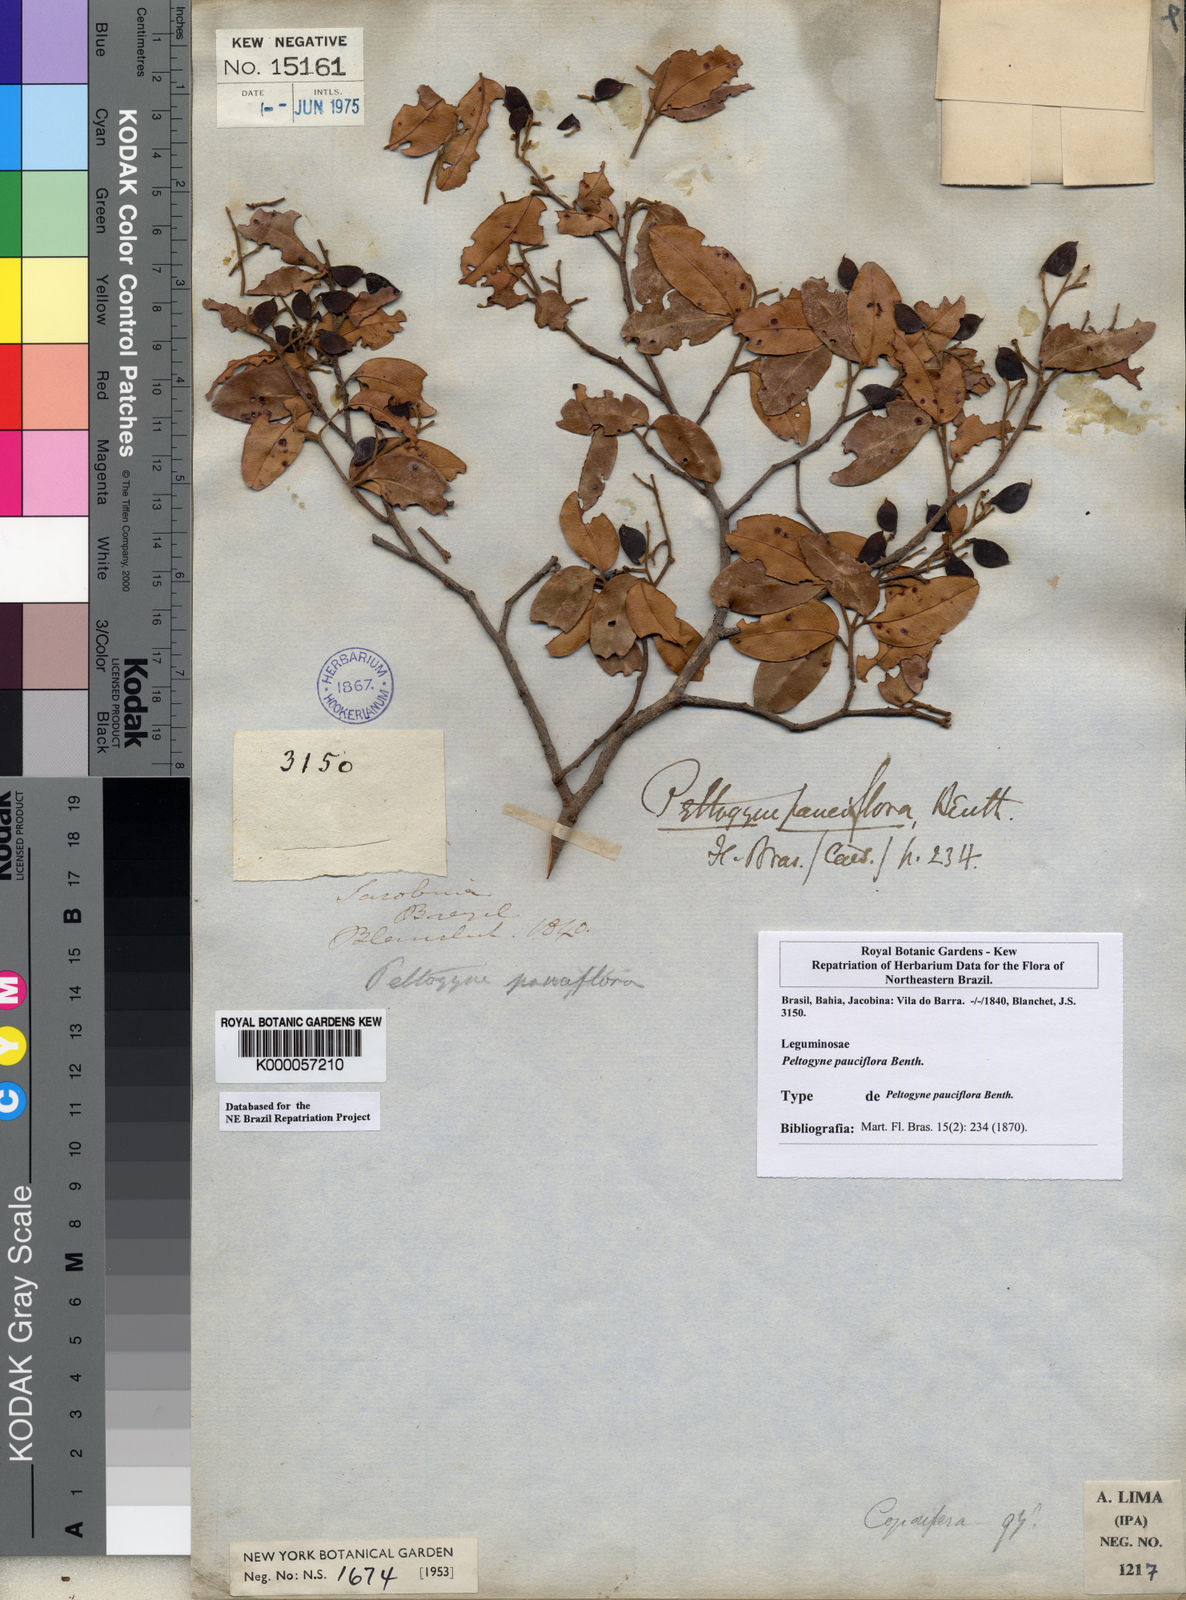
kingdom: Plantae
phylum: Tracheophyta
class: Magnoliopsida
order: Fabales
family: Fabaceae
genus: Peltogyne
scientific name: Peltogyne pauciflora
